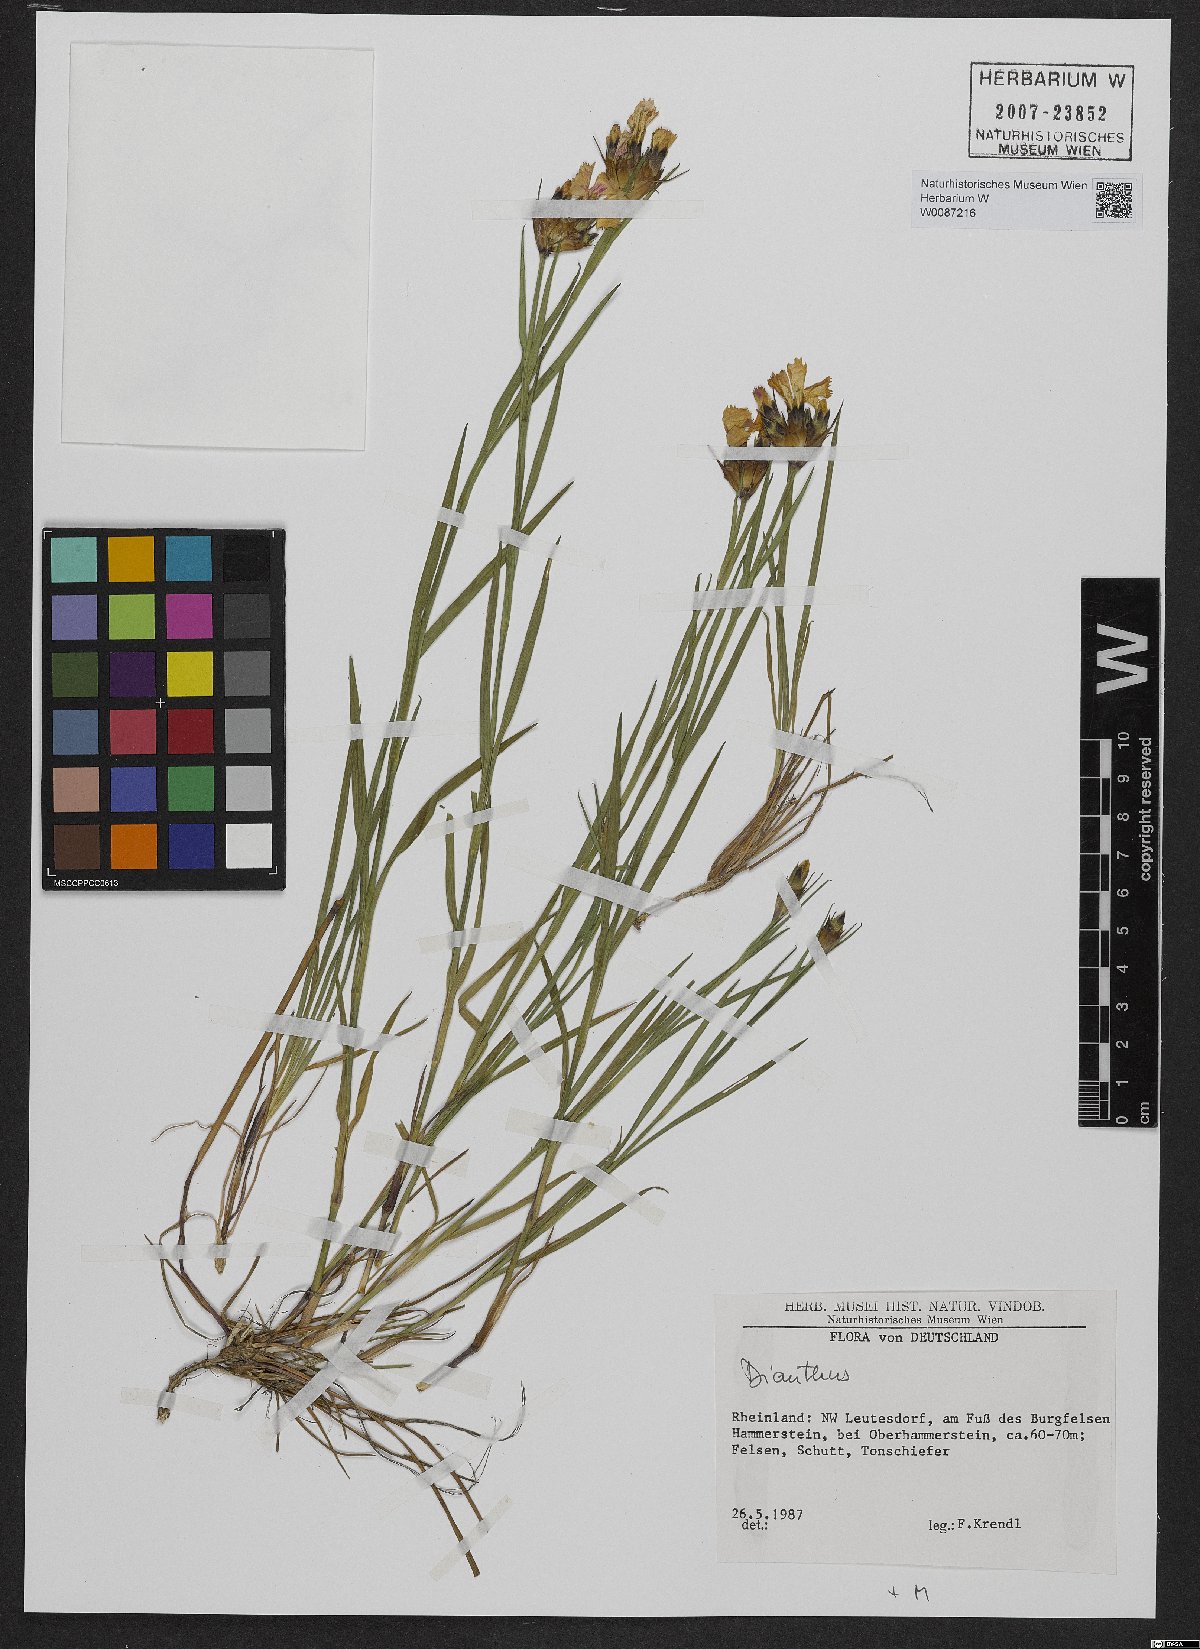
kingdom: Plantae
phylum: Tracheophyta
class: Magnoliopsida
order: Caryophyllales
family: Caryophyllaceae
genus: Dianthus
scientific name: Dianthus carthusianorum
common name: Carthusian pink
